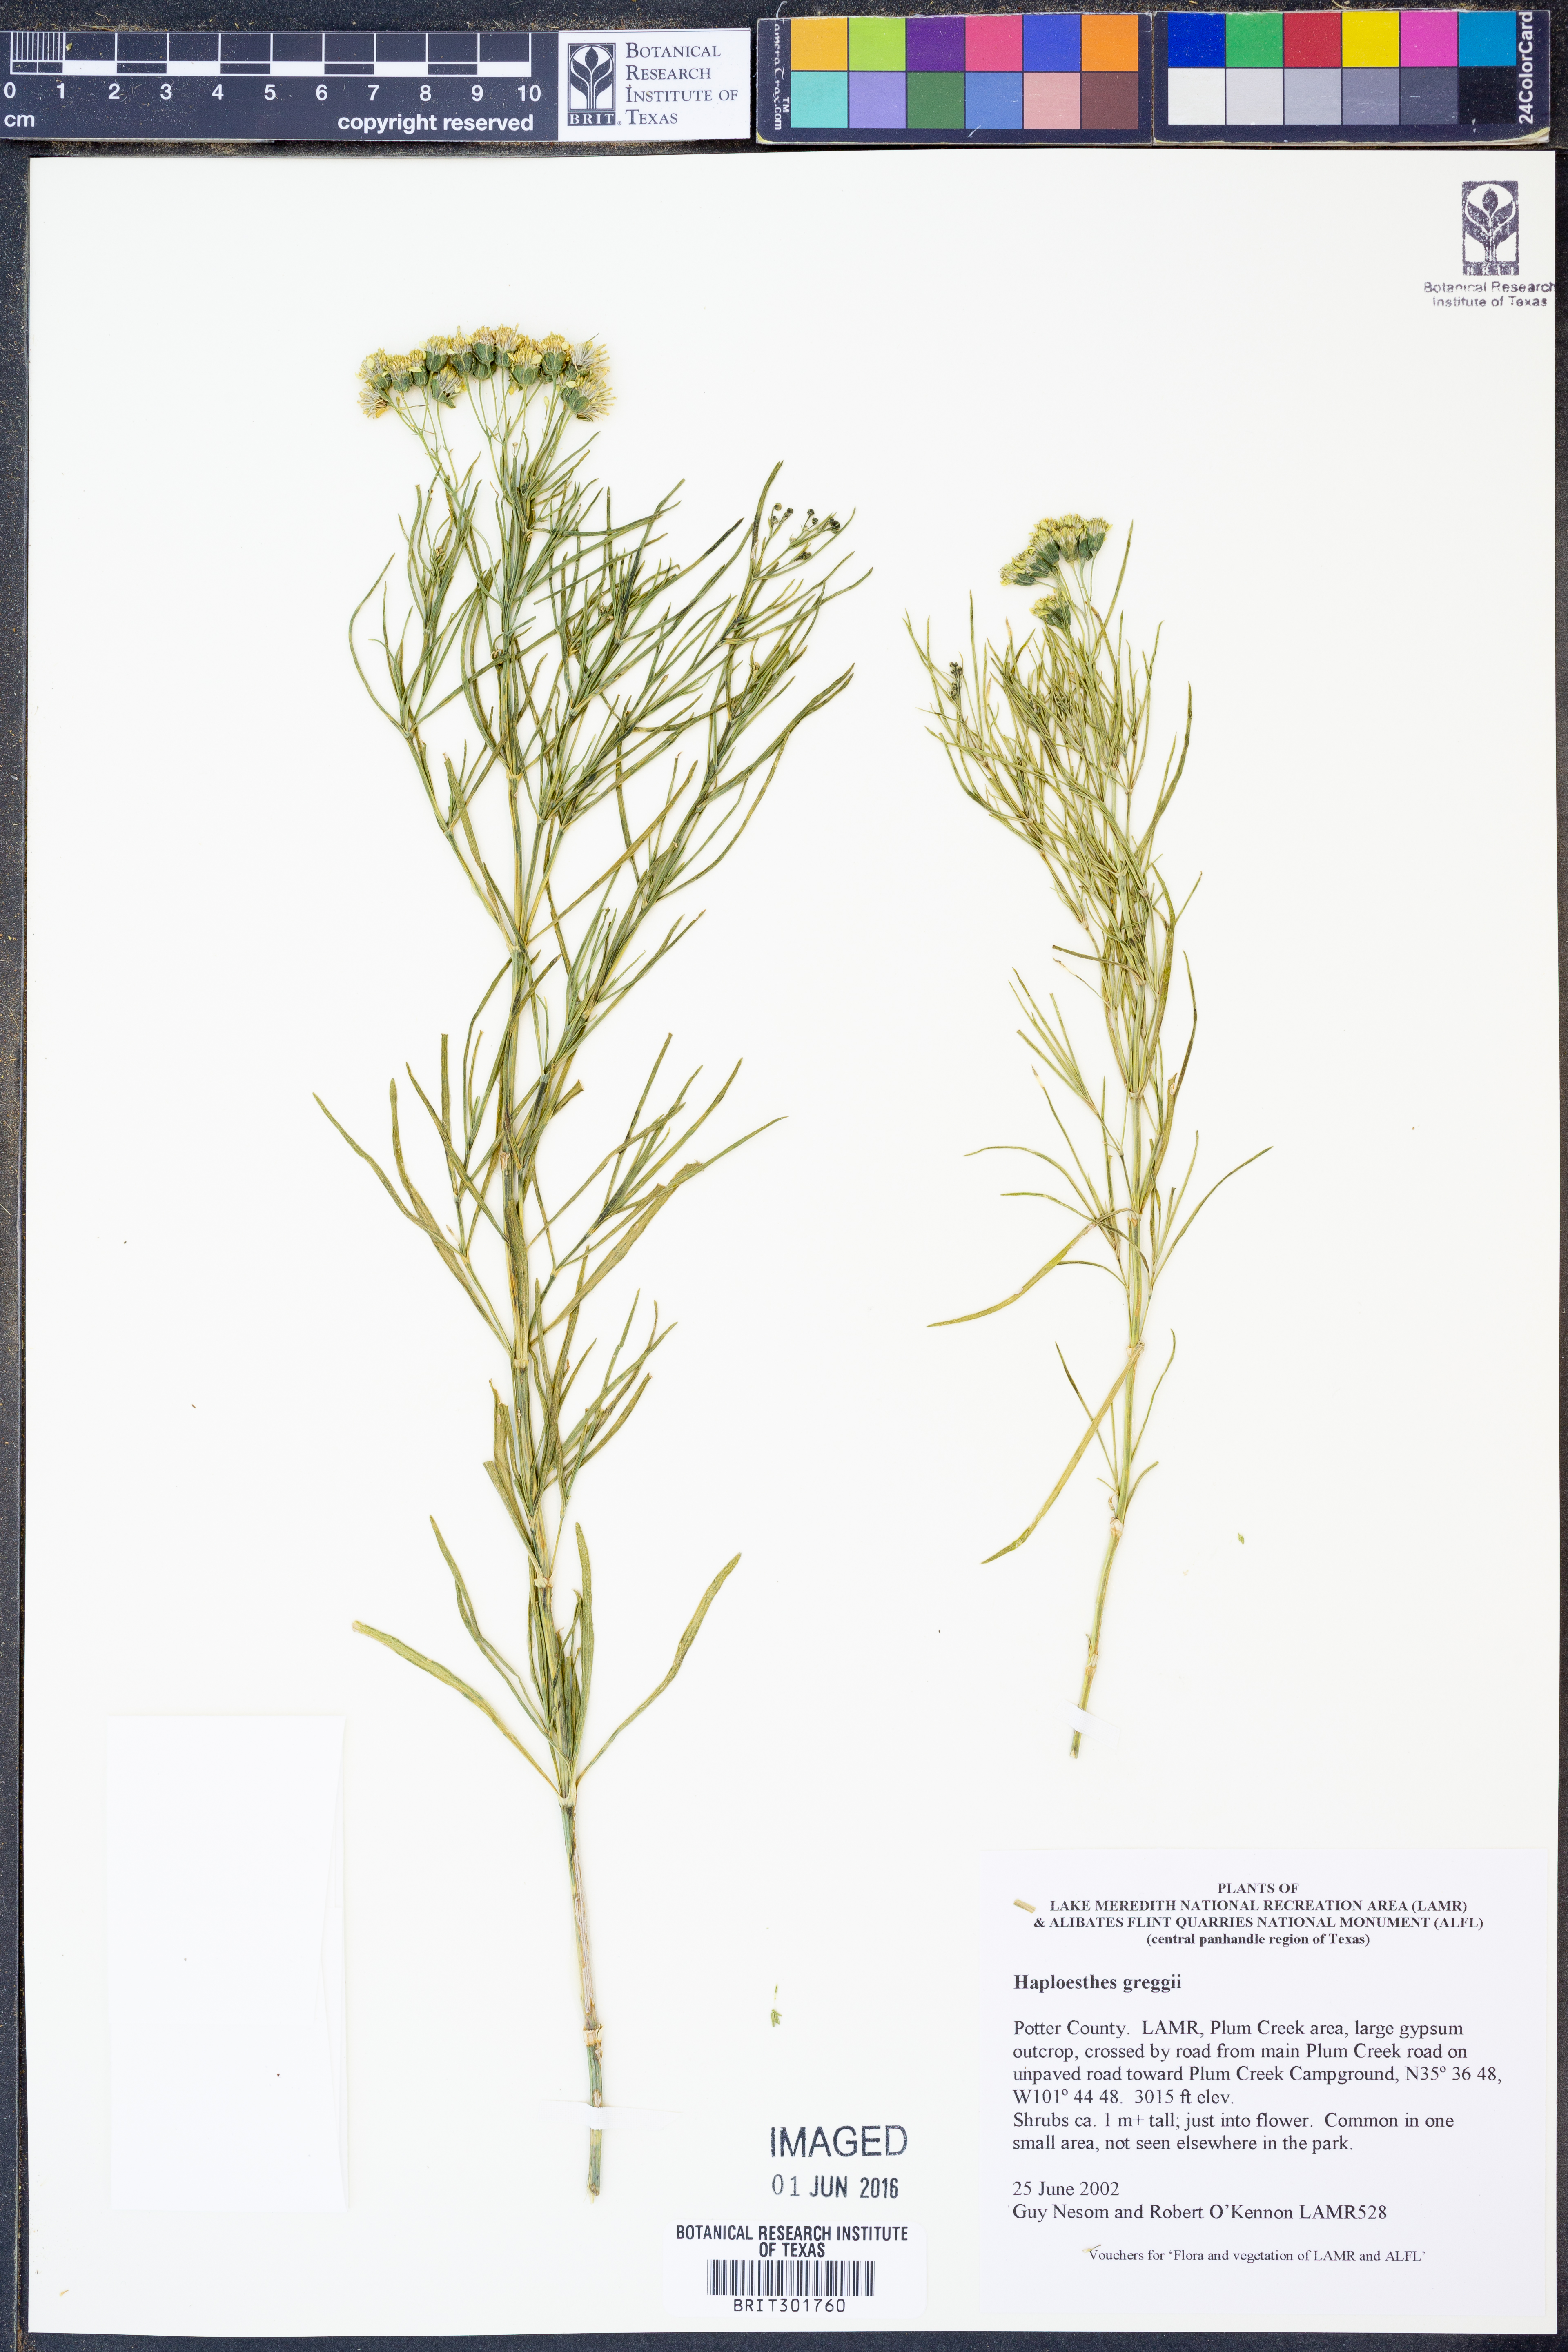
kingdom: Plantae
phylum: Tracheophyta
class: Magnoliopsida
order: Asterales
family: Asteraceae
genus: Haploesthes
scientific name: Haploesthes greggii
